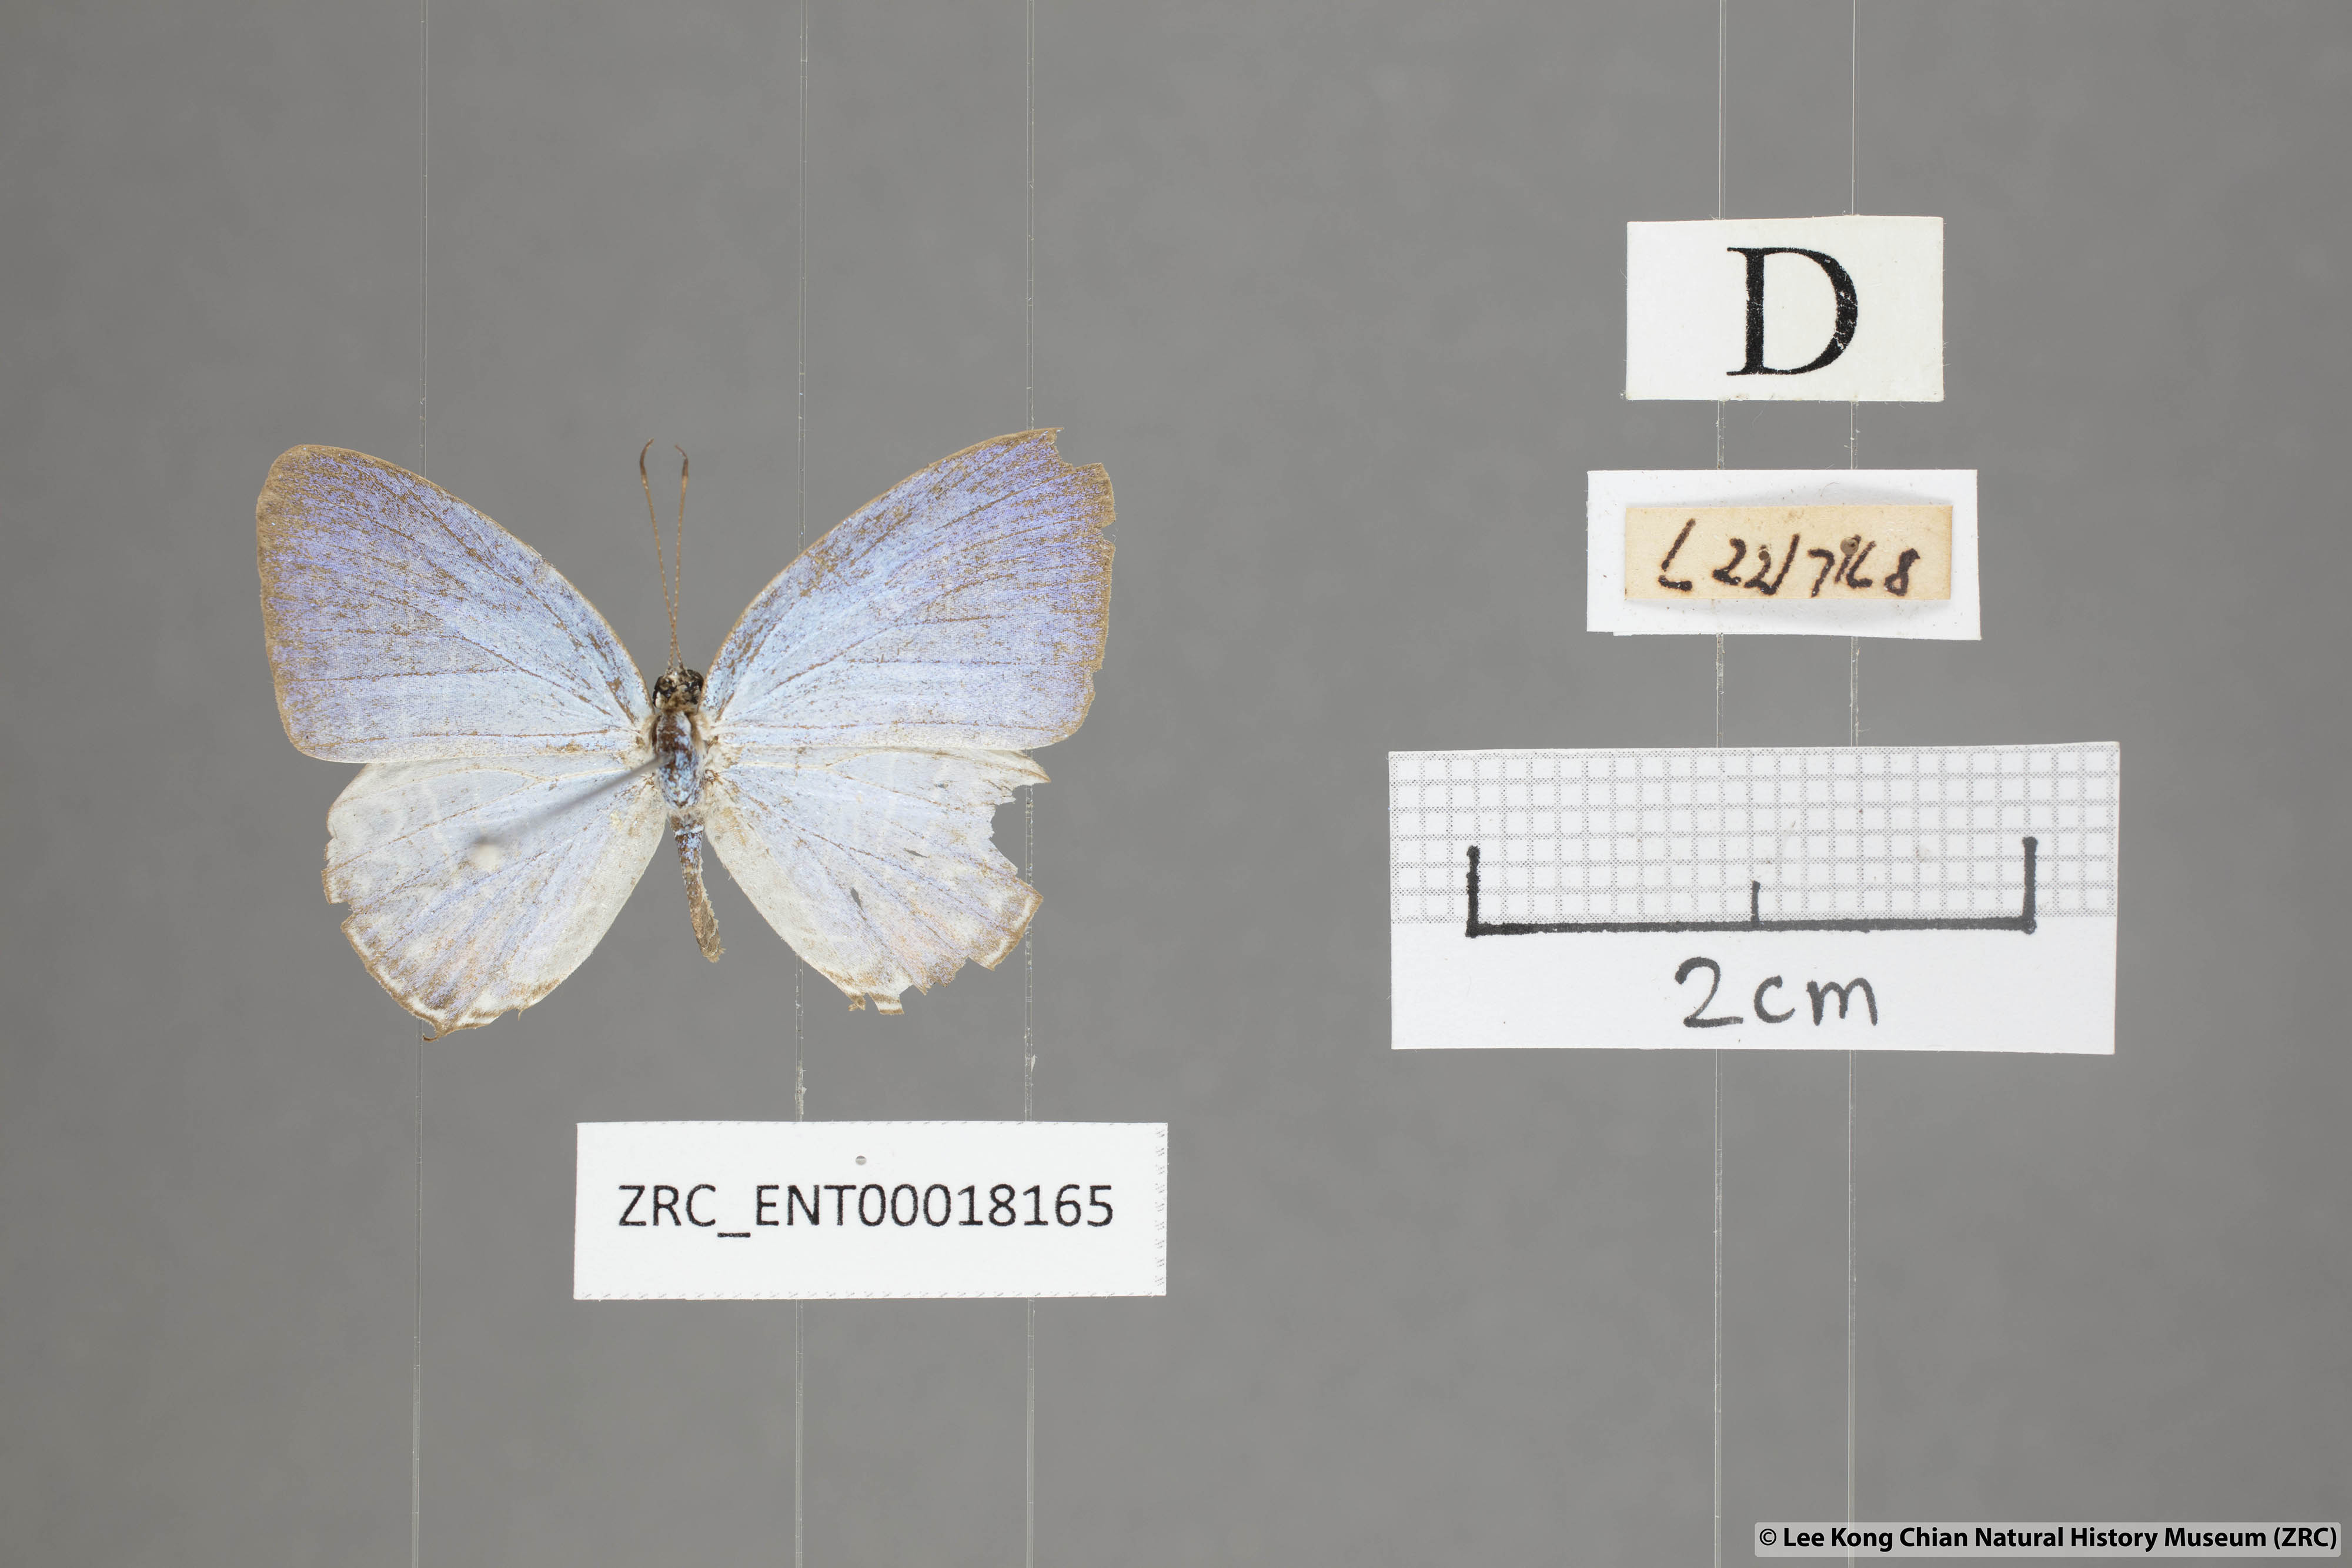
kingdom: Animalia
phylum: Arthropoda
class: Insecta
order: Lepidoptera
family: Lycaenidae
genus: Jamides
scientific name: Jamides
